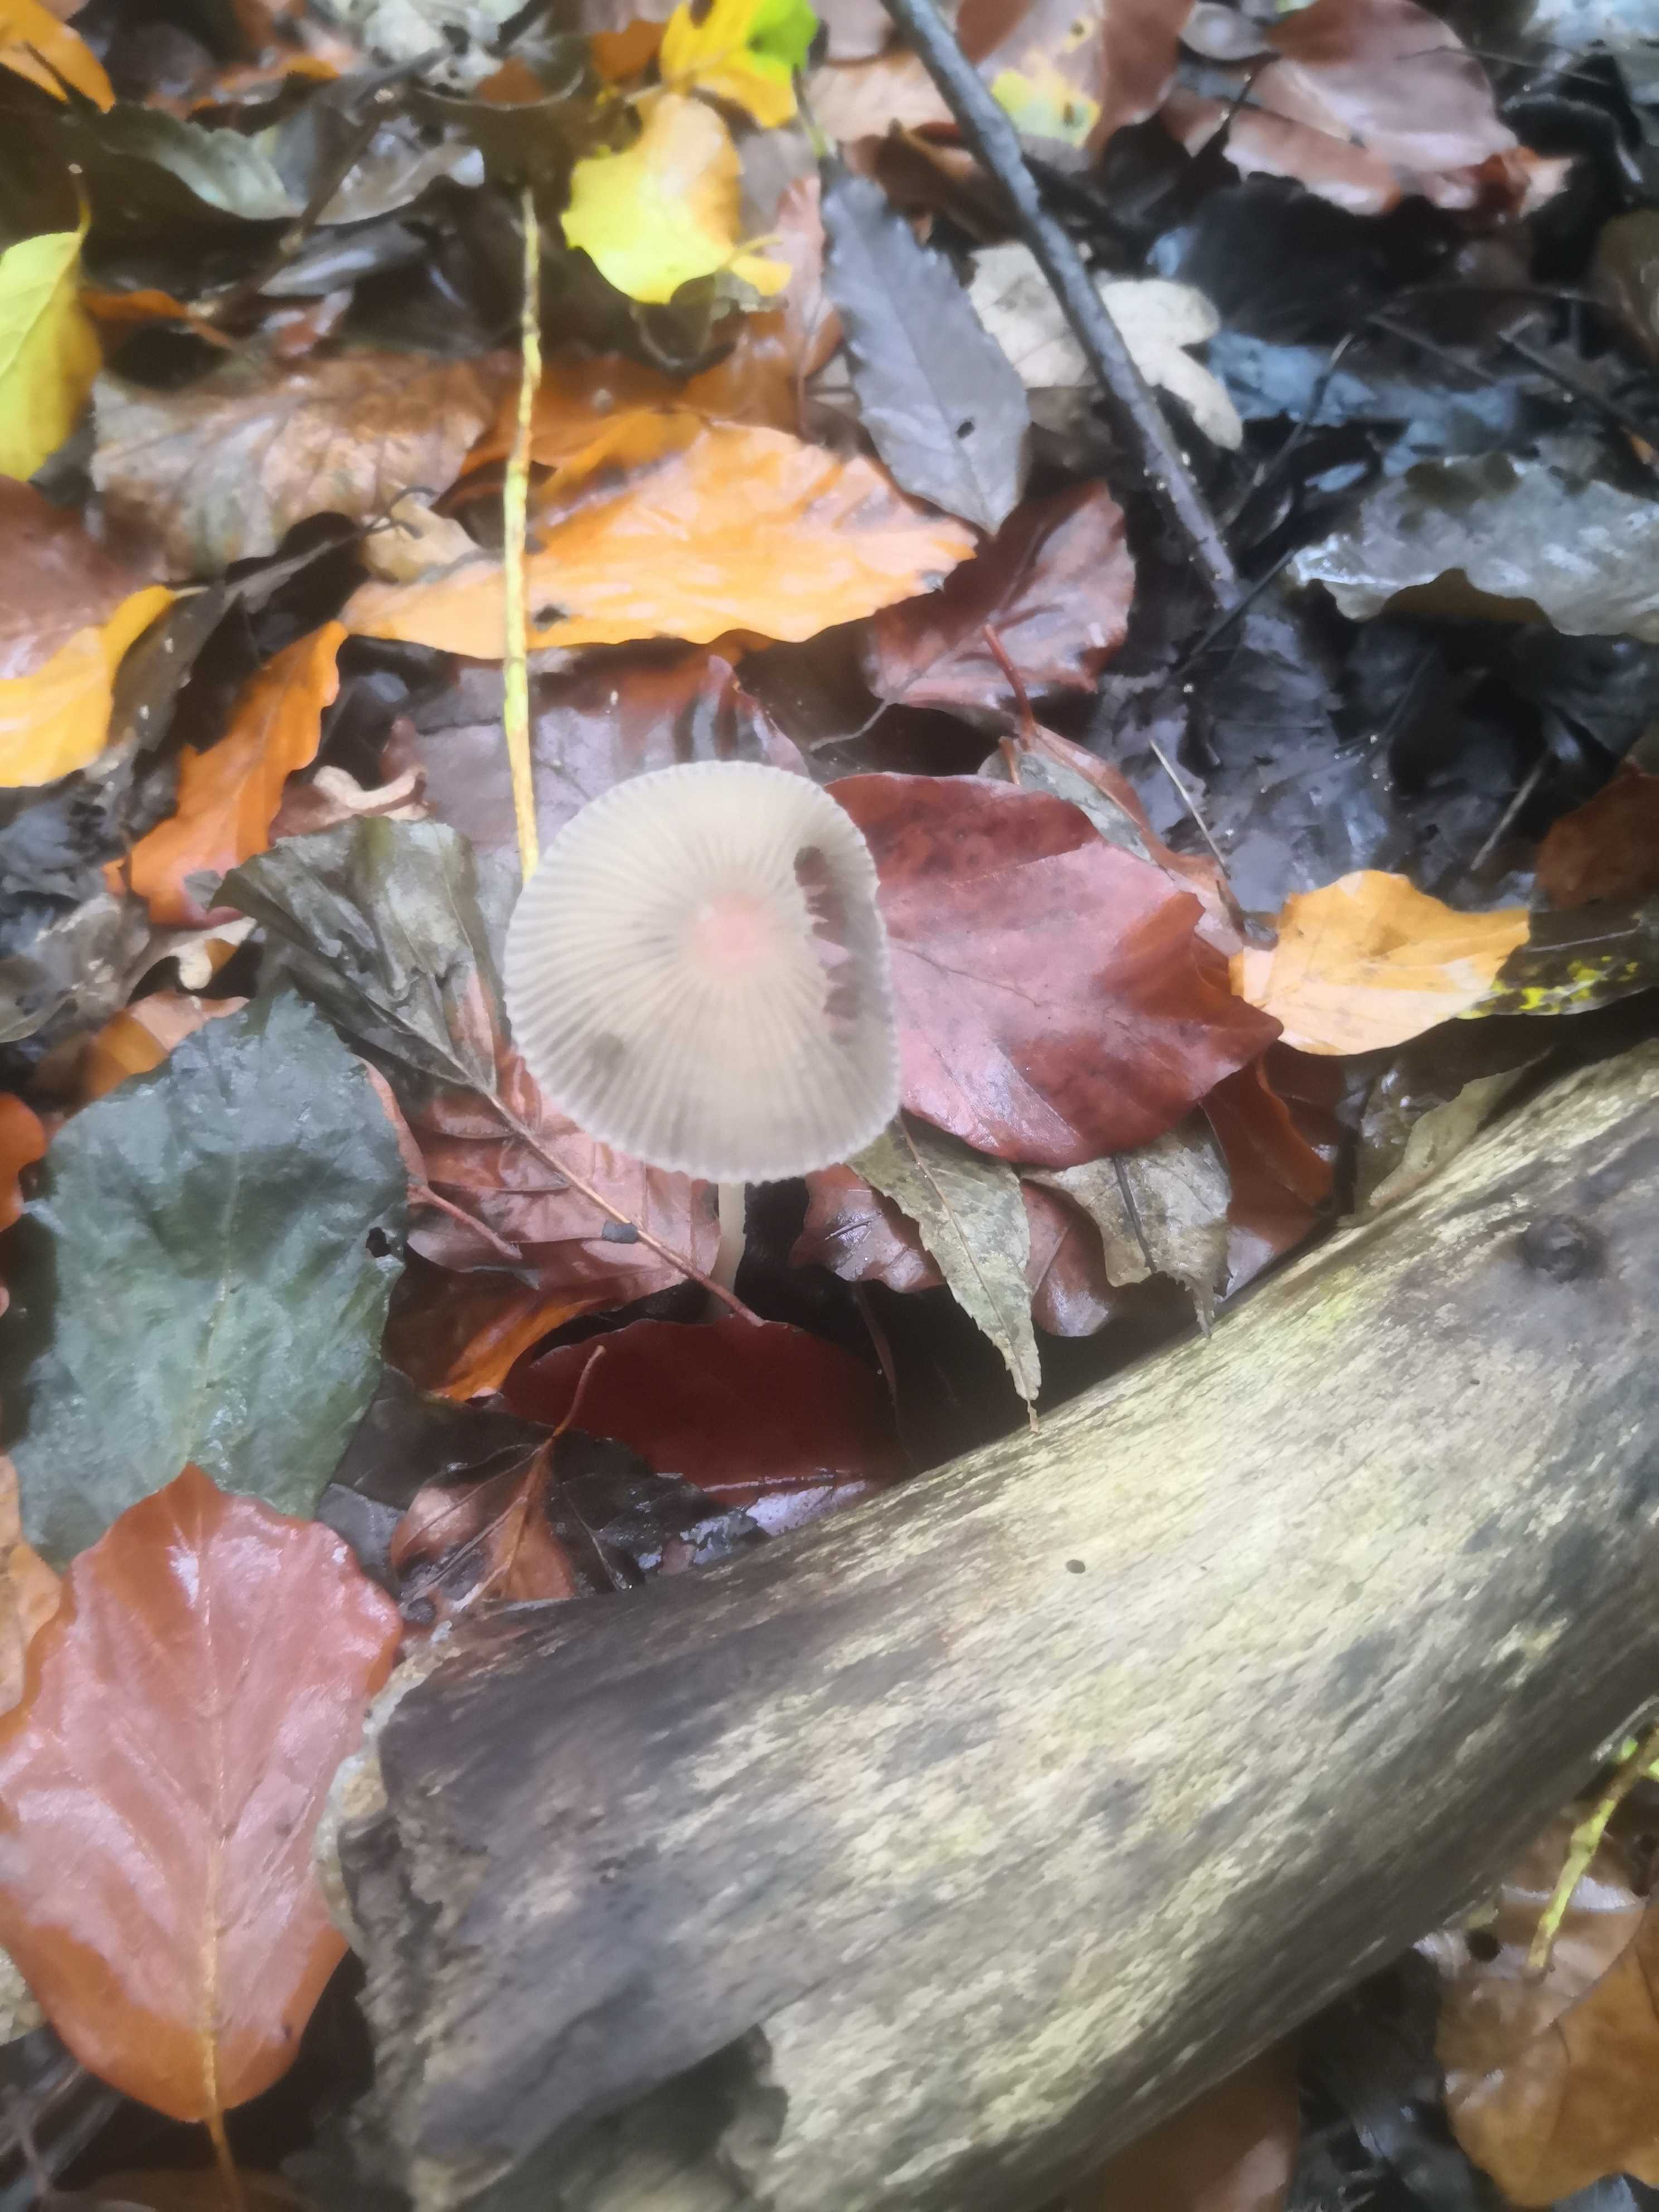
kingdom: Fungi
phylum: Basidiomycota
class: Agaricomycetes
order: Agaricales
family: Psathyrellaceae
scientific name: Psathyrellaceae
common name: mørkhatfamilien
